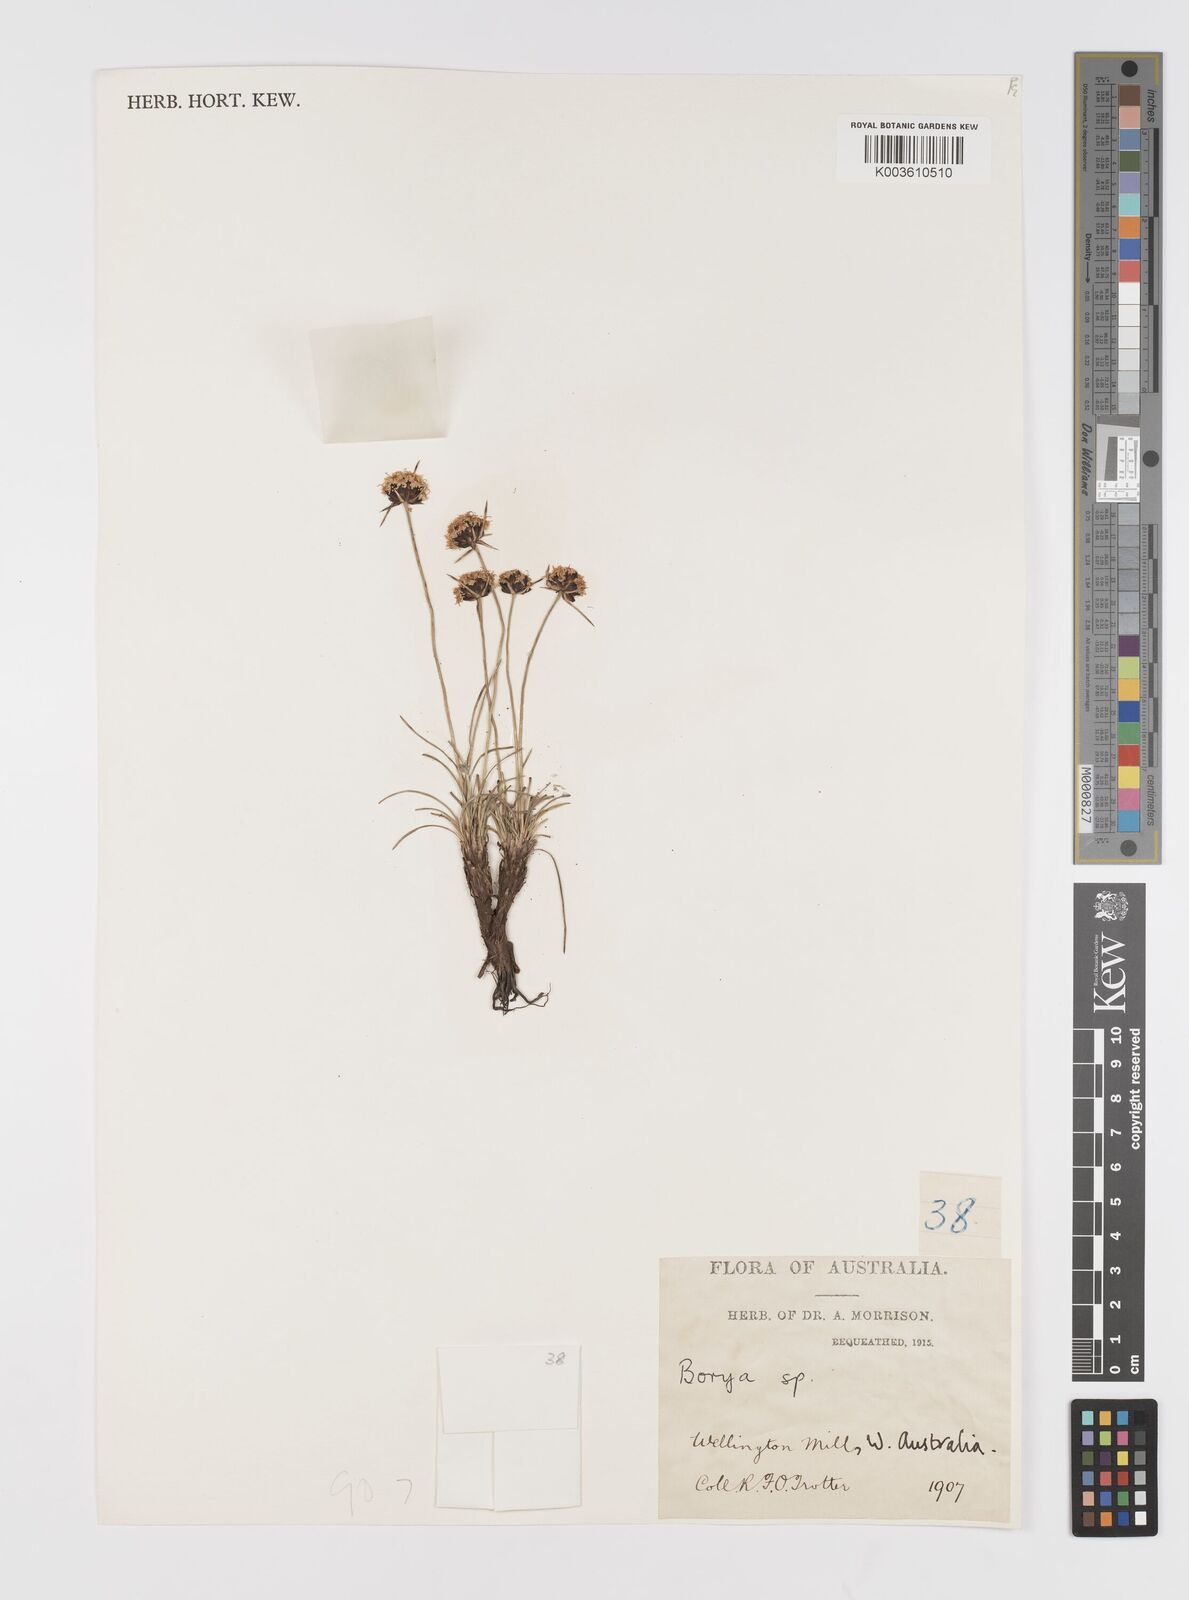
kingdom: Plantae
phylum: Tracheophyta
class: Liliopsida
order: Asparagales
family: Boryaceae
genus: Borya
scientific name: Borya nitida
